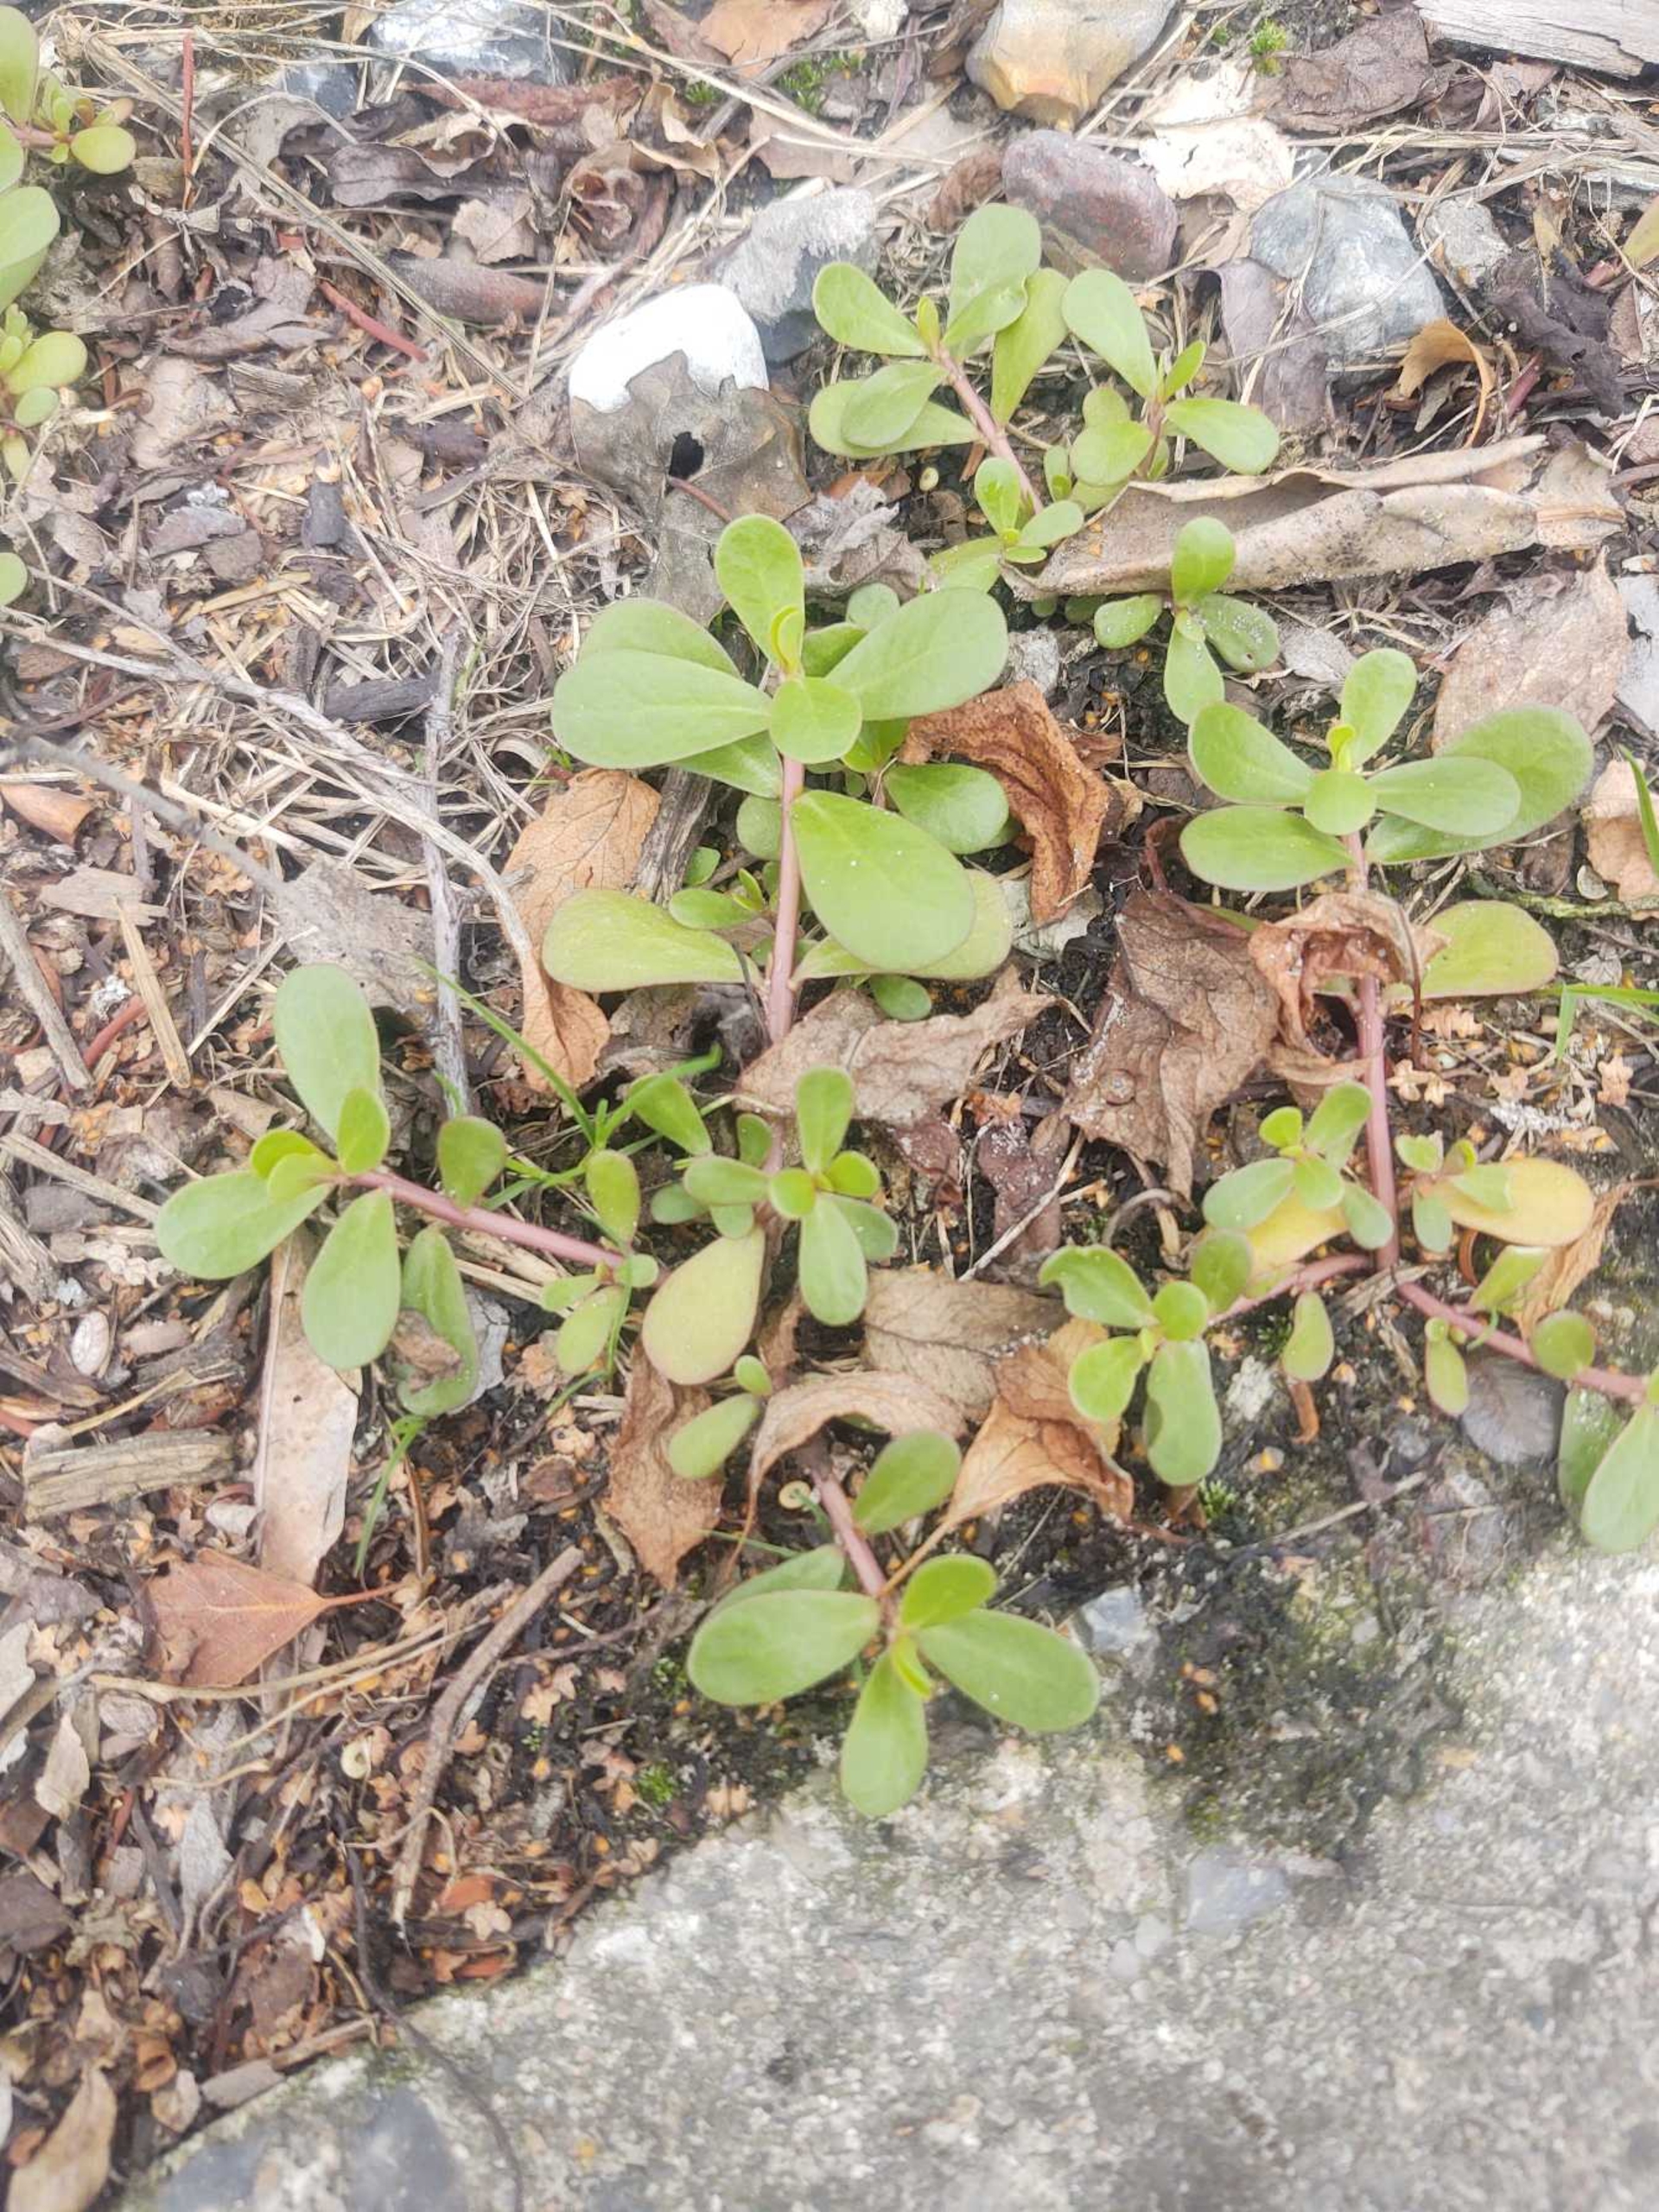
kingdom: Plantae
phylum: Tracheophyta
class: Magnoliopsida
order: Caryophyllales
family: Portulacaceae
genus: Portulaca
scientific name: Portulaca oleracea
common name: Vild portulak
